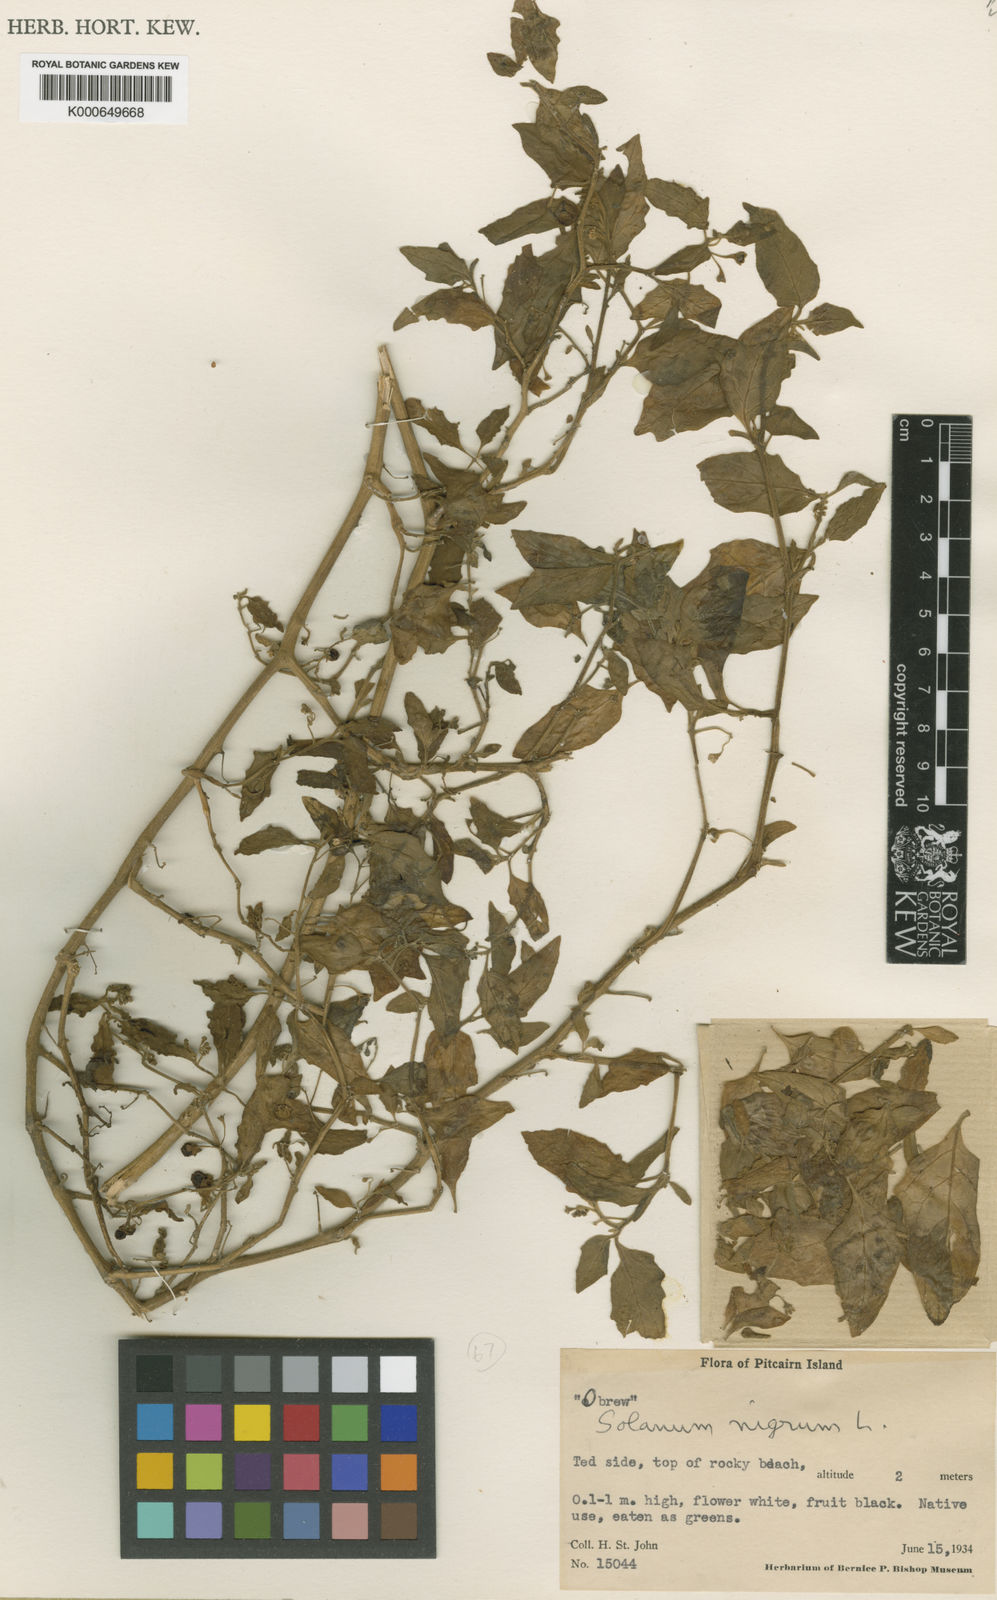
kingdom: Plantae
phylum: Tracheophyta
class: Magnoliopsida
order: Solanales
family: Solanaceae
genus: Solanum
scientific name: Solanum americanum
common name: American black nightshade
